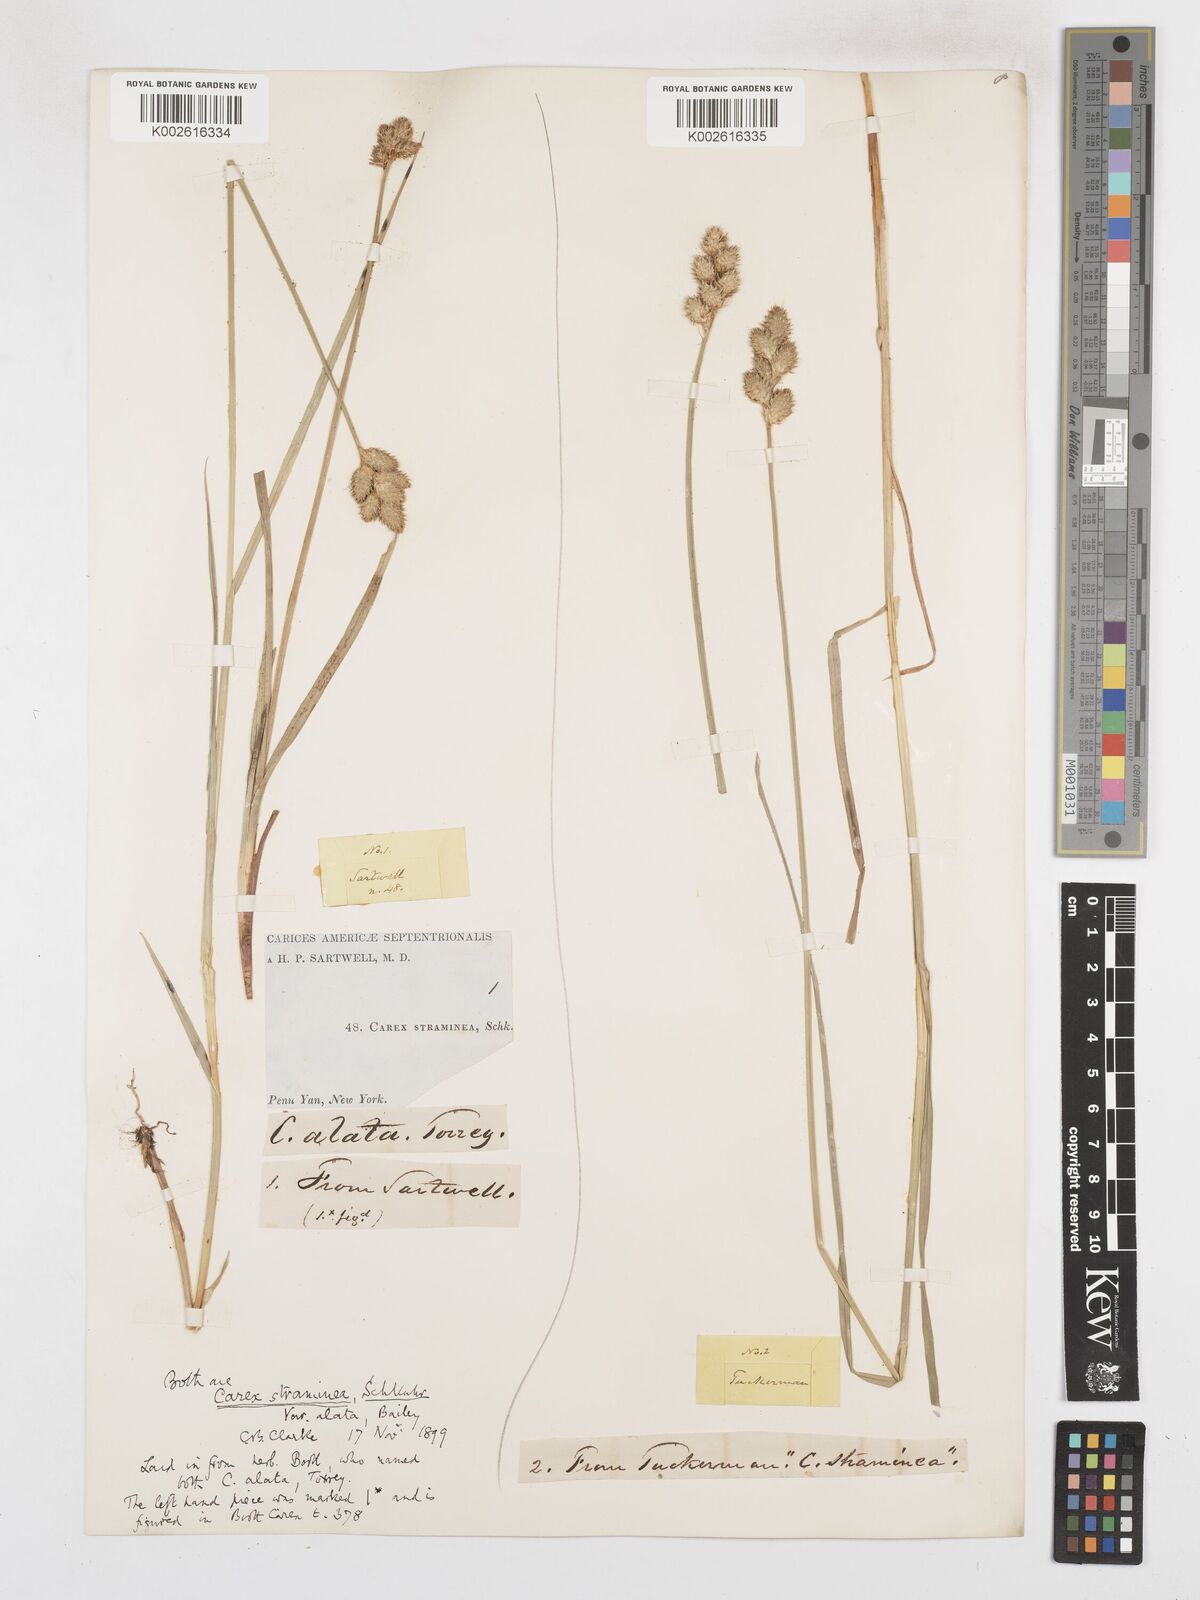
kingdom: Plantae
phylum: Tracheophyta
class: Liliopsida
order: Poales
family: Cyperaceae
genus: Carex
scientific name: Carex alata
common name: Broad-winged sedge
